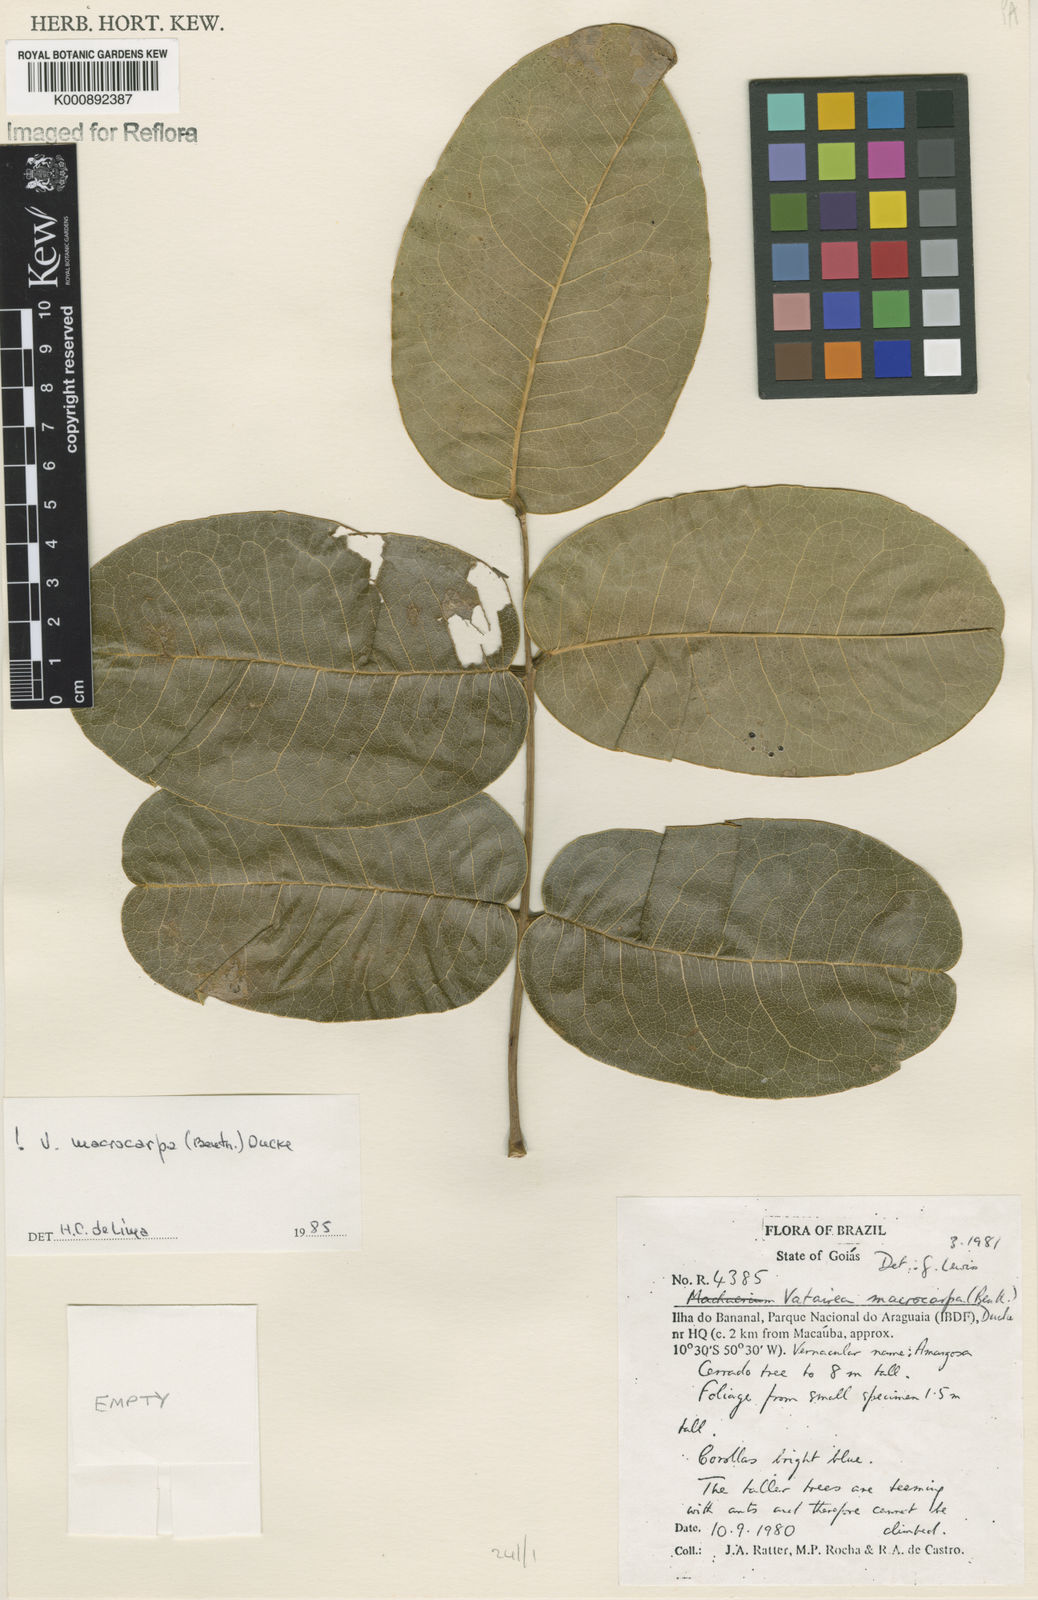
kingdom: Plantae
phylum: Tracheophyta
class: Magnoliopsida
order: Fabales
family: Fabaceae
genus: Vatairea
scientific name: Vatairea macrocarpa
